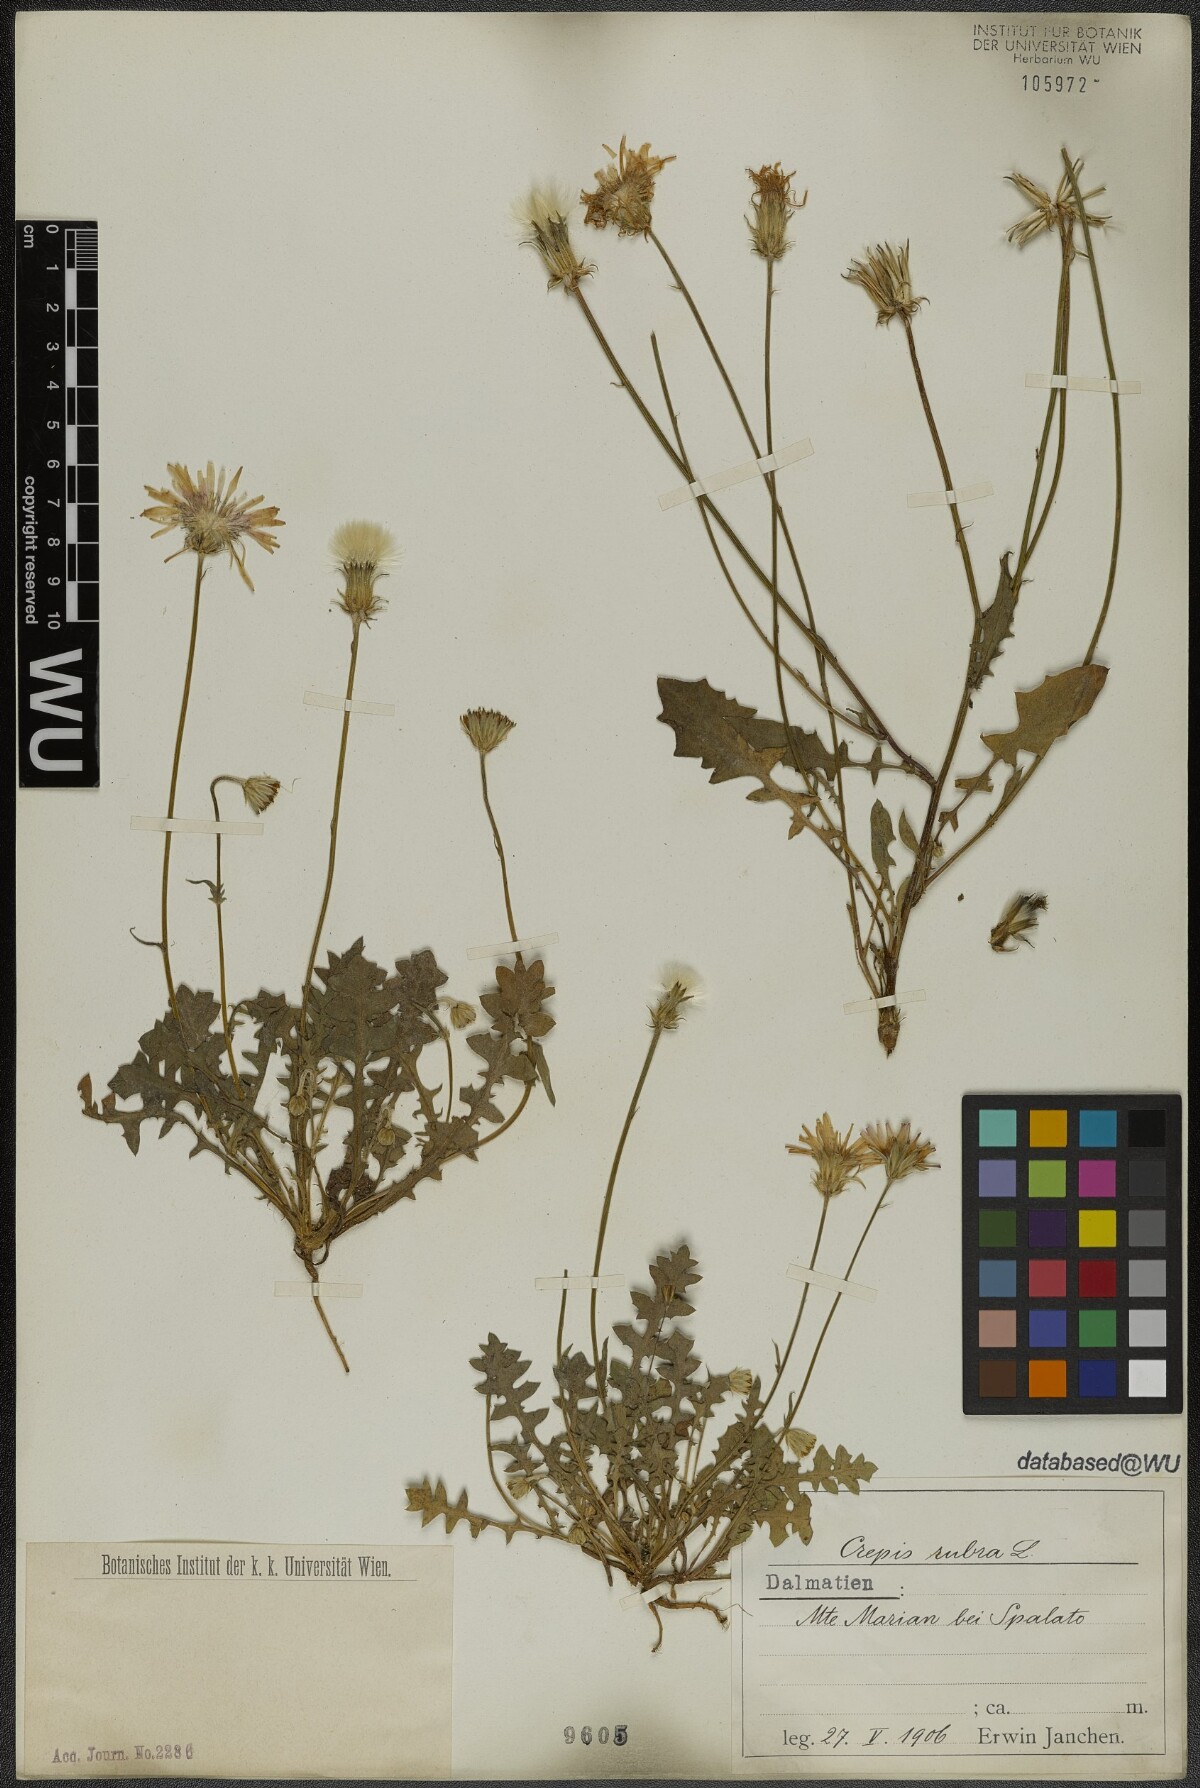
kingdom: Plantae
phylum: Tracheophyta
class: Magnoliopsida
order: Asterales
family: Asteraceae
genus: Crepis
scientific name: Crepis rubra
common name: Pink hawk's-beard
